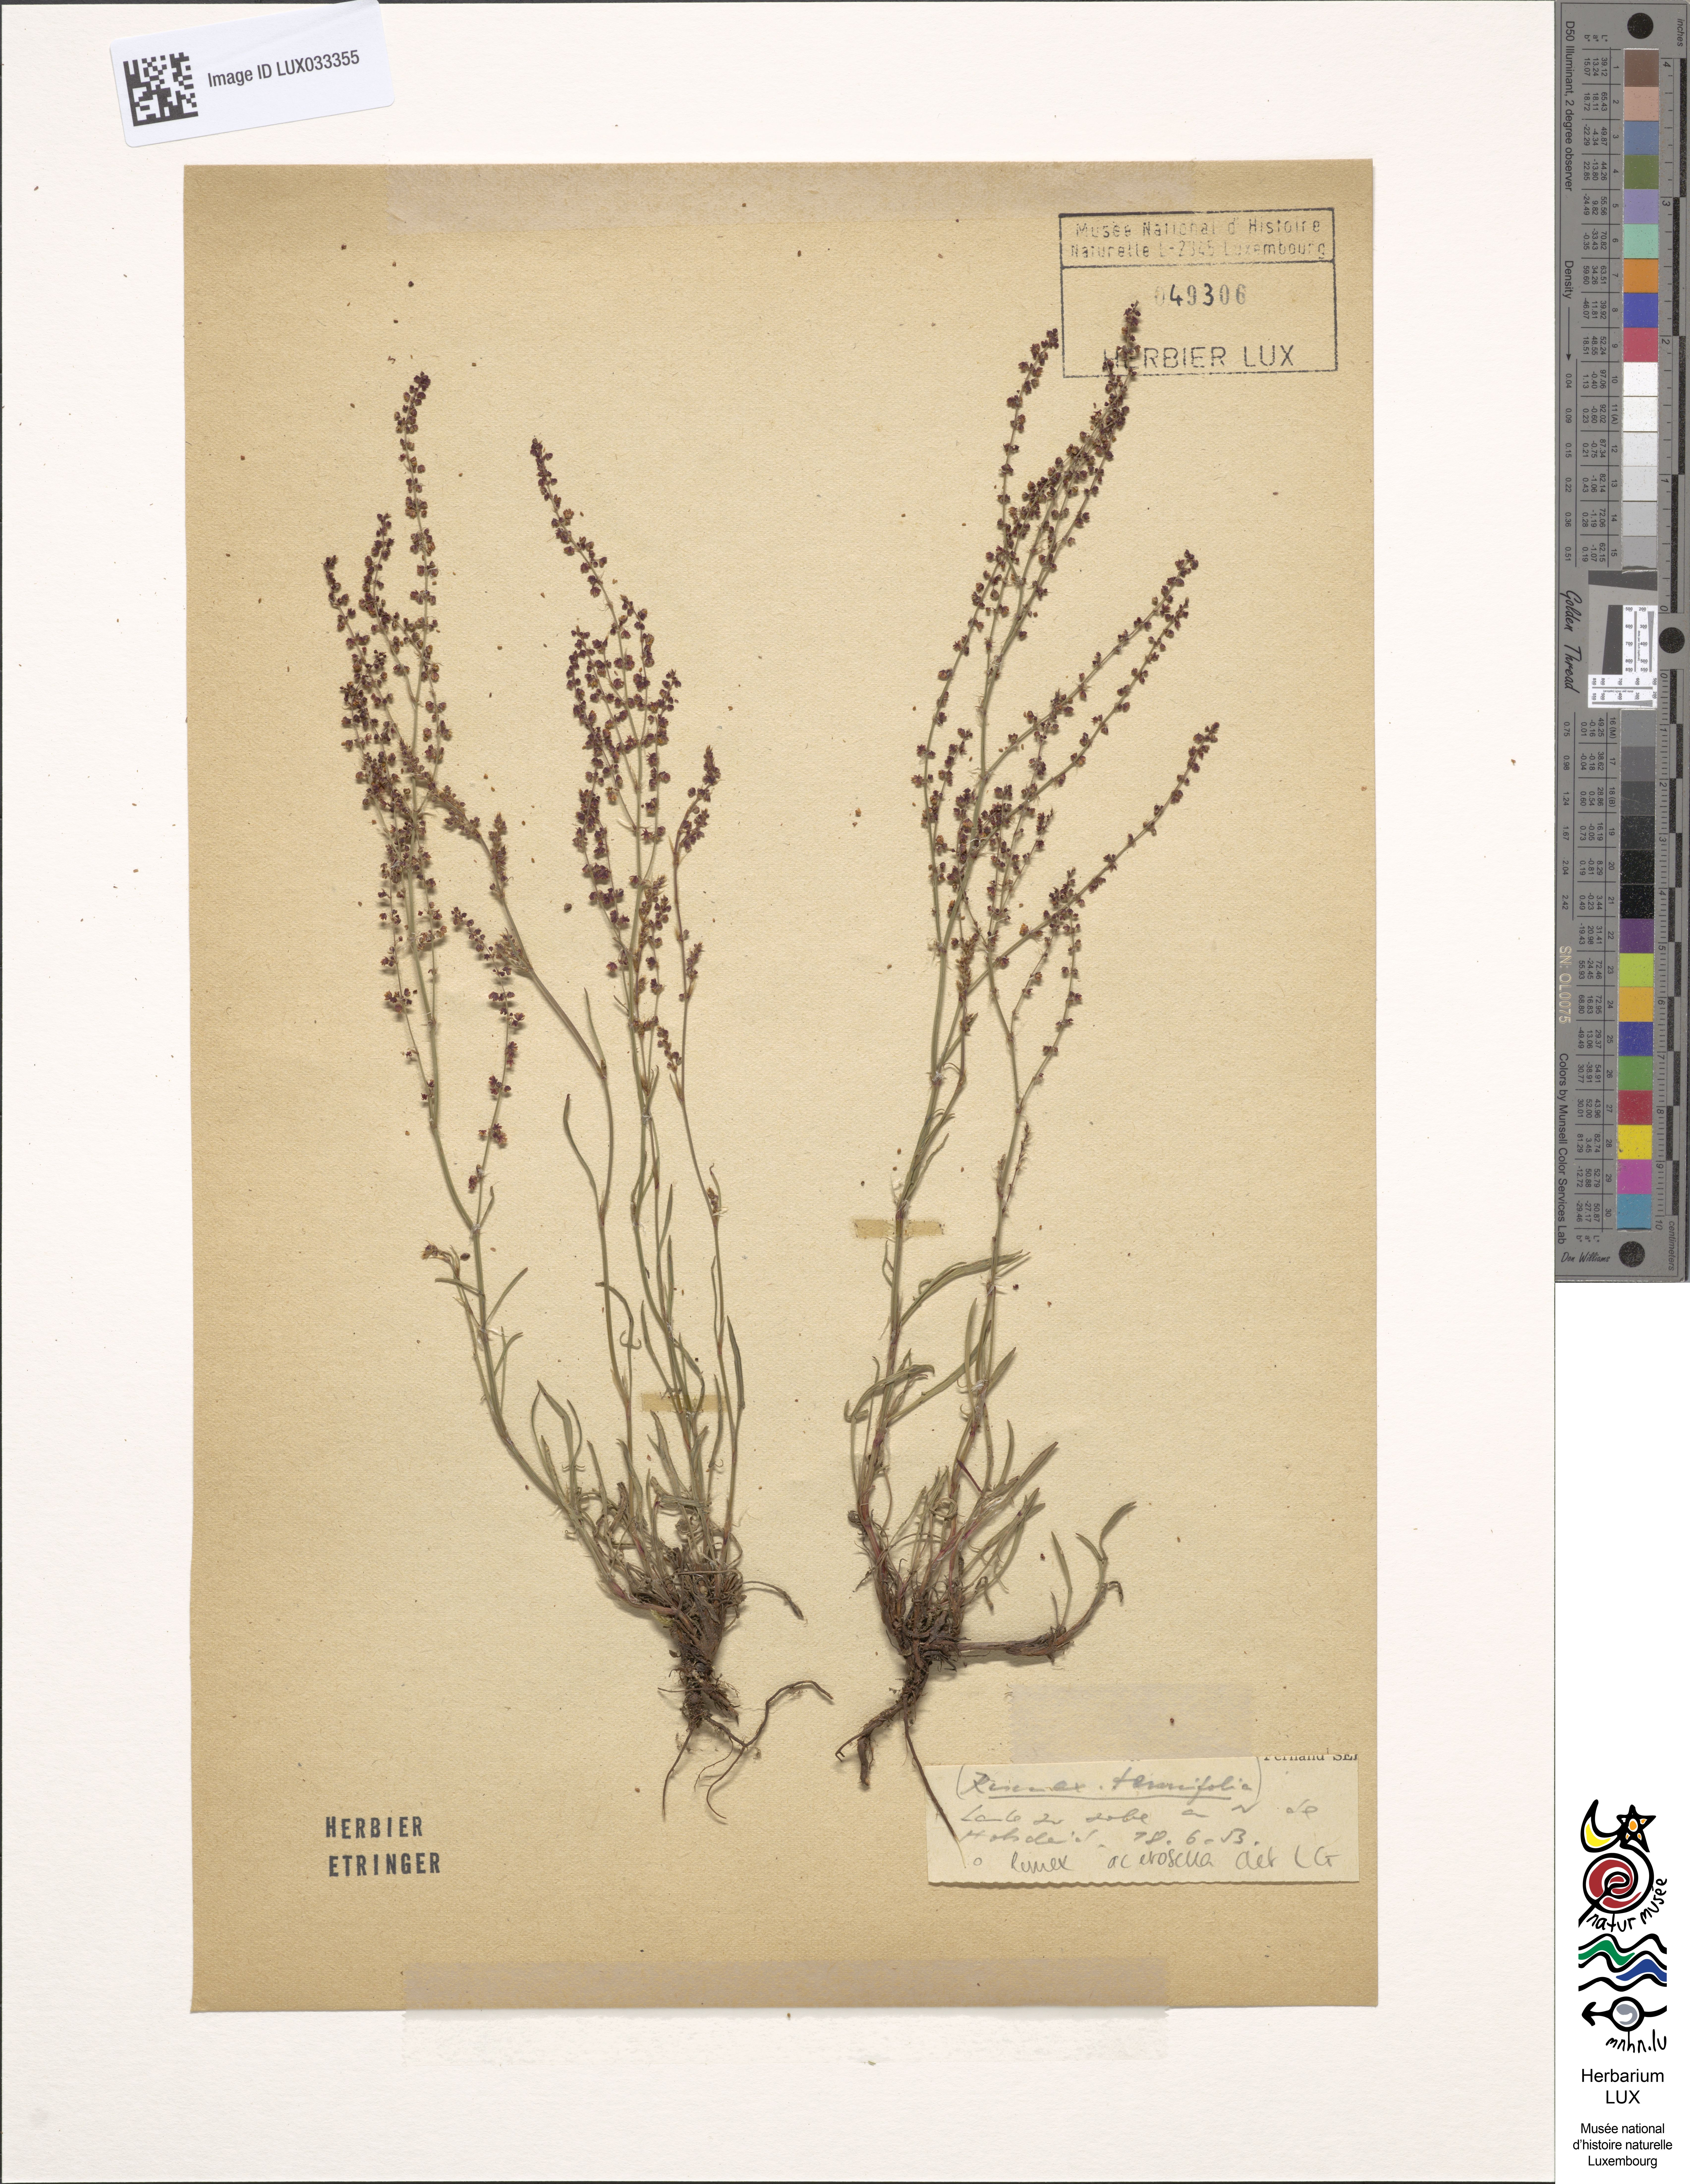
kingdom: Plantae
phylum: Tracheophyta
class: Magnoliopsida
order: Caryophyllales
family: Polygonaceae
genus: Rumex
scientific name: Rumex acetosella
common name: Common sheep sorrel
